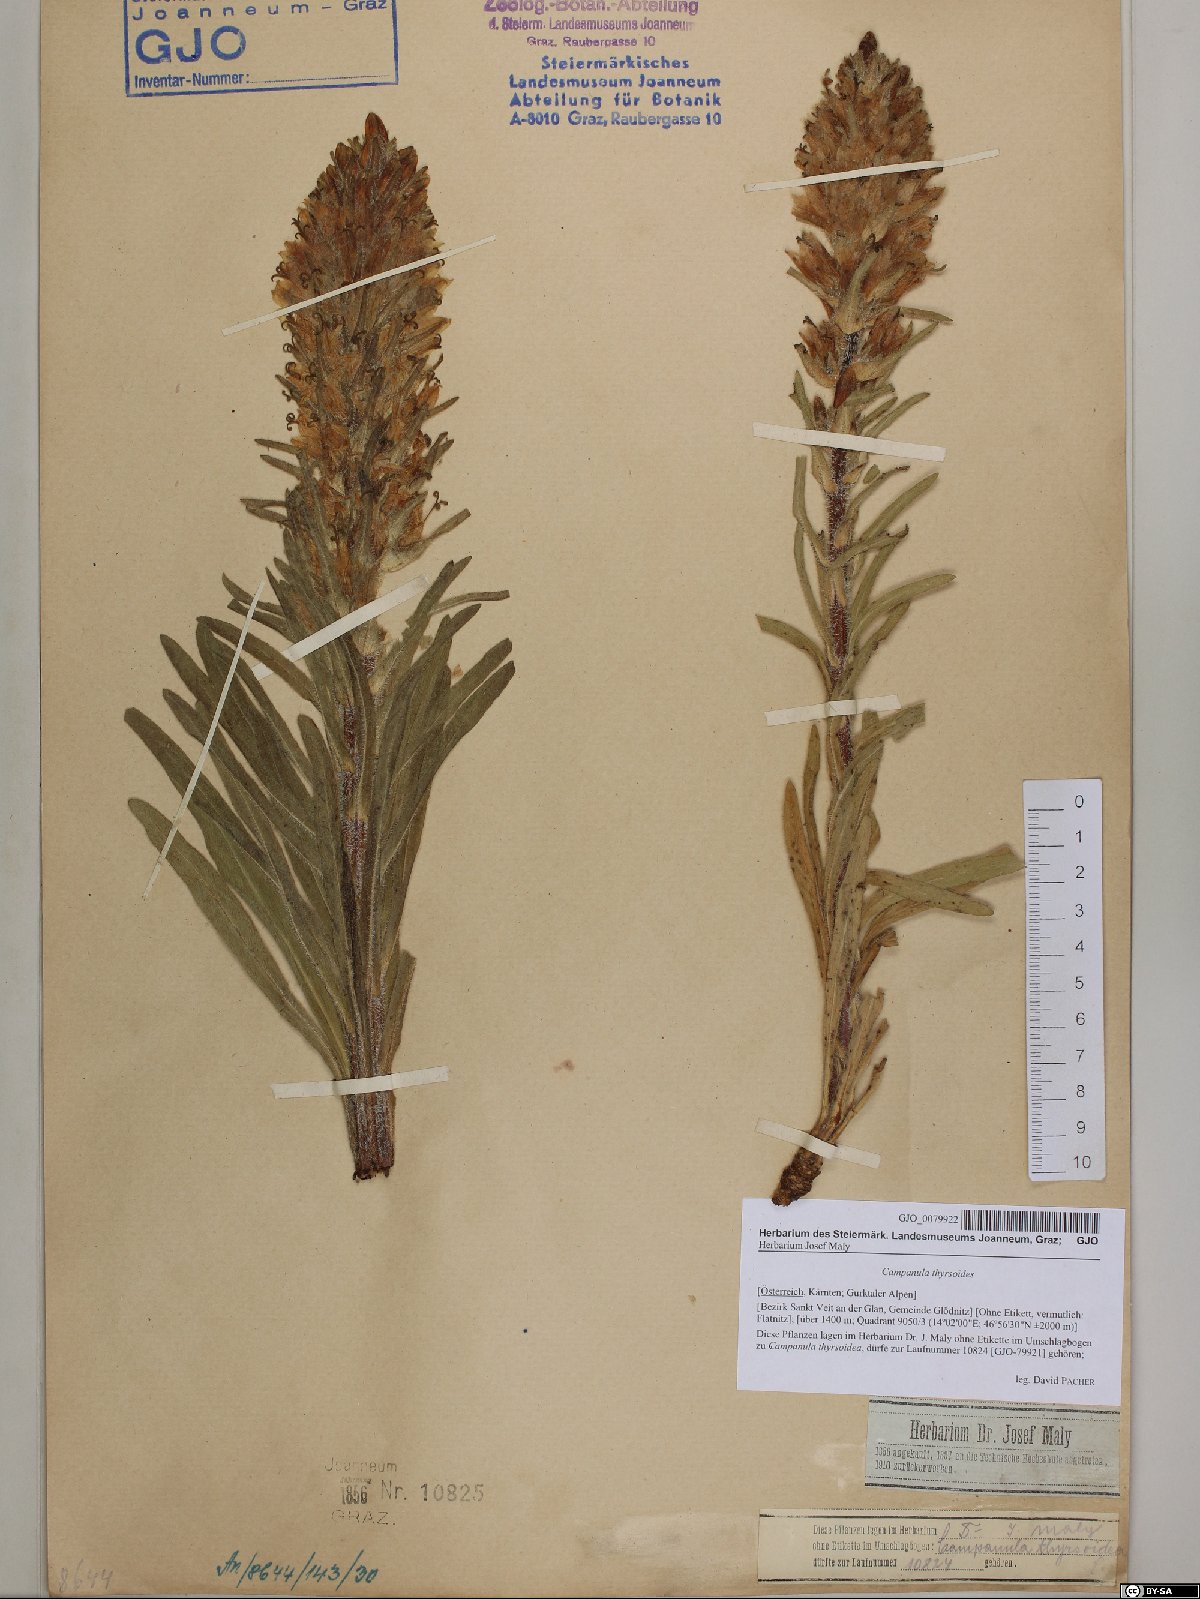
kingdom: Plantae
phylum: Tracheophyta
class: Magnoliopsida
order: Asterales
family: Campanulaceae
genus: Campanula
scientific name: Campanula thyrsoides
